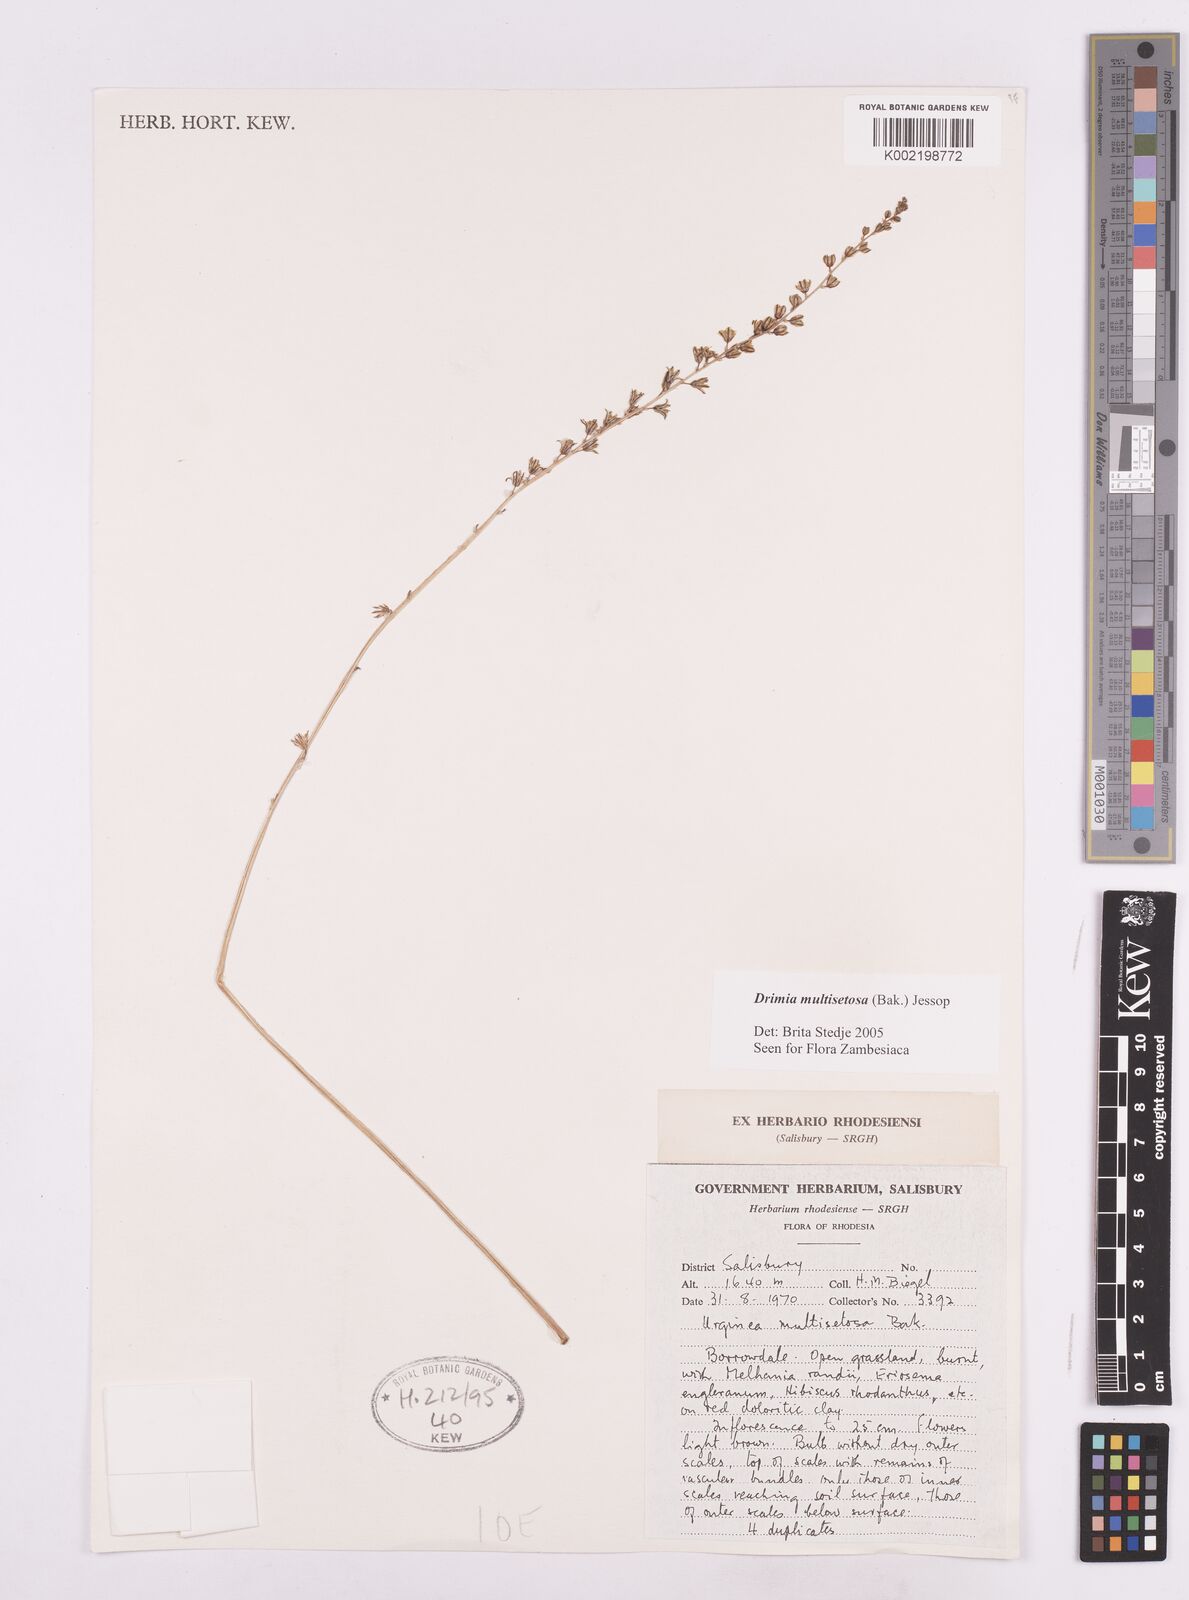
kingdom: Plantae
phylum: Tracheophyta
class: Liliopsida
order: Asparagales
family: Asparagaceae
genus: Drimia
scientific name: Drimia multisetosa
